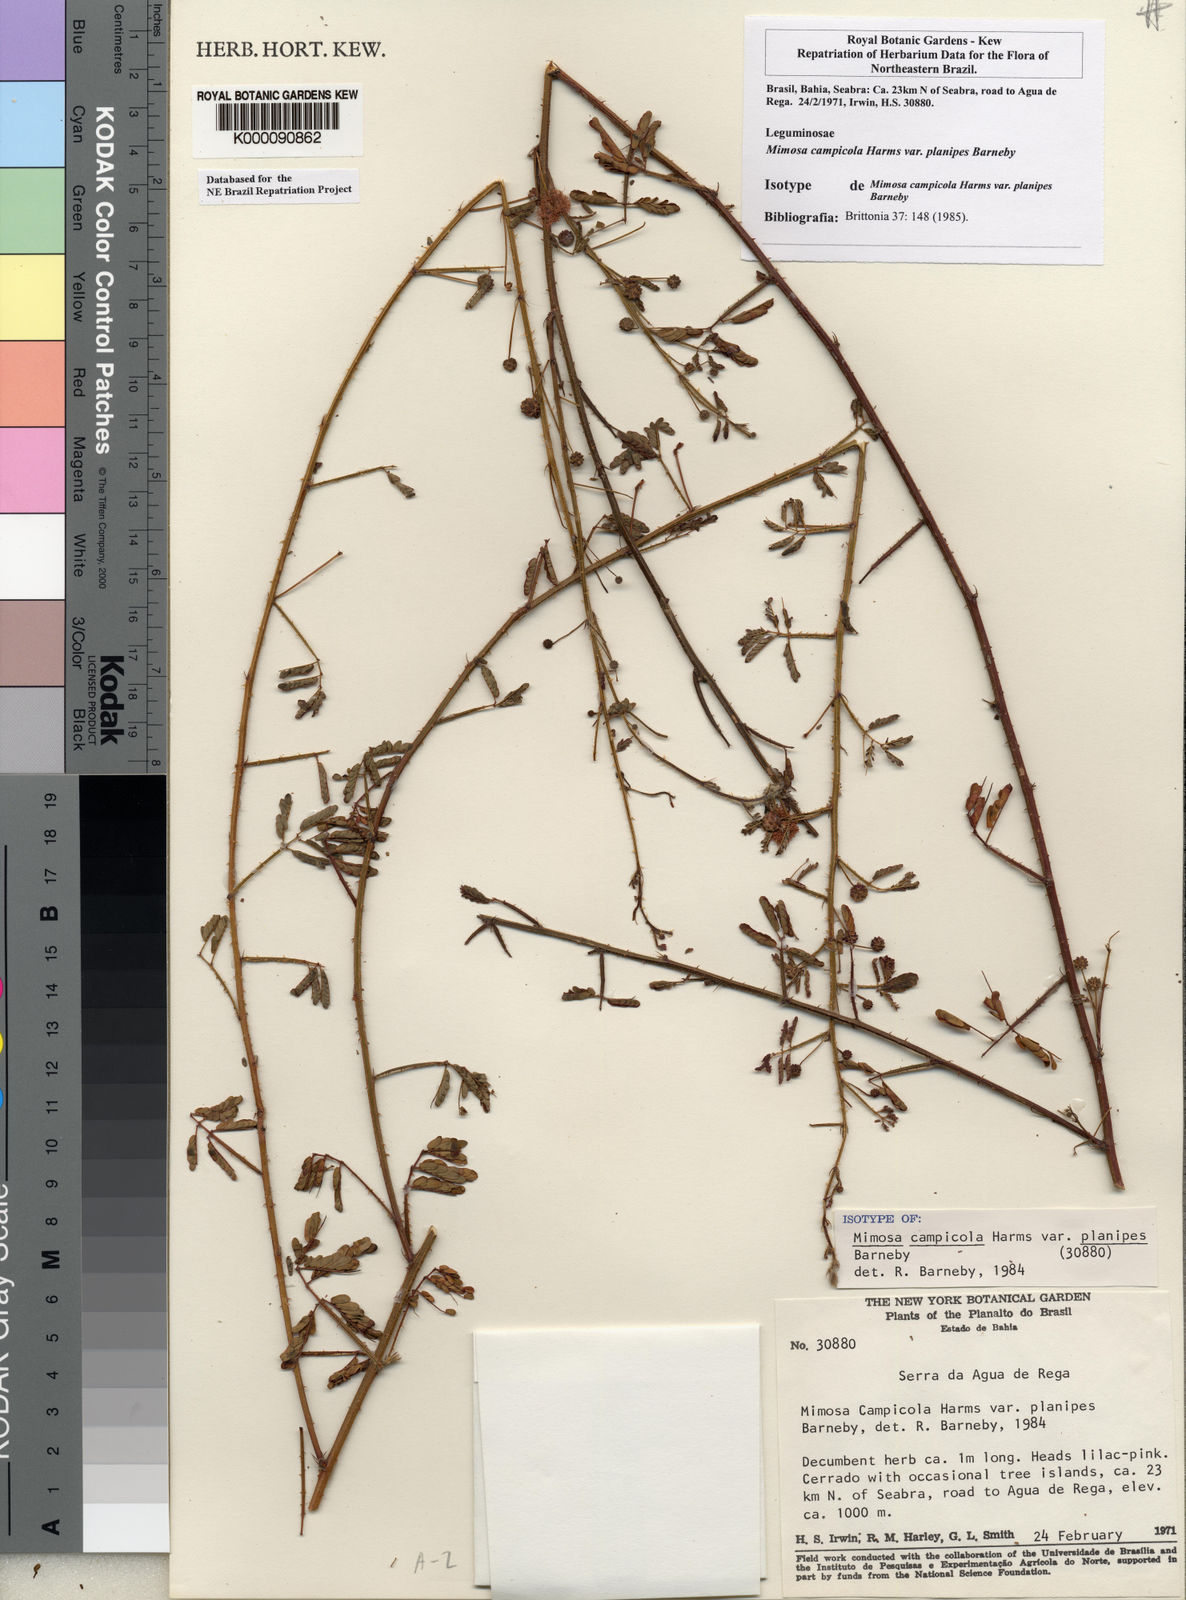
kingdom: Plantae
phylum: Tracheophyta
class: Magnoliopsida
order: Fabales
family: Fabaceae
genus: Mimosa
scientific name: Mimosa campicola
